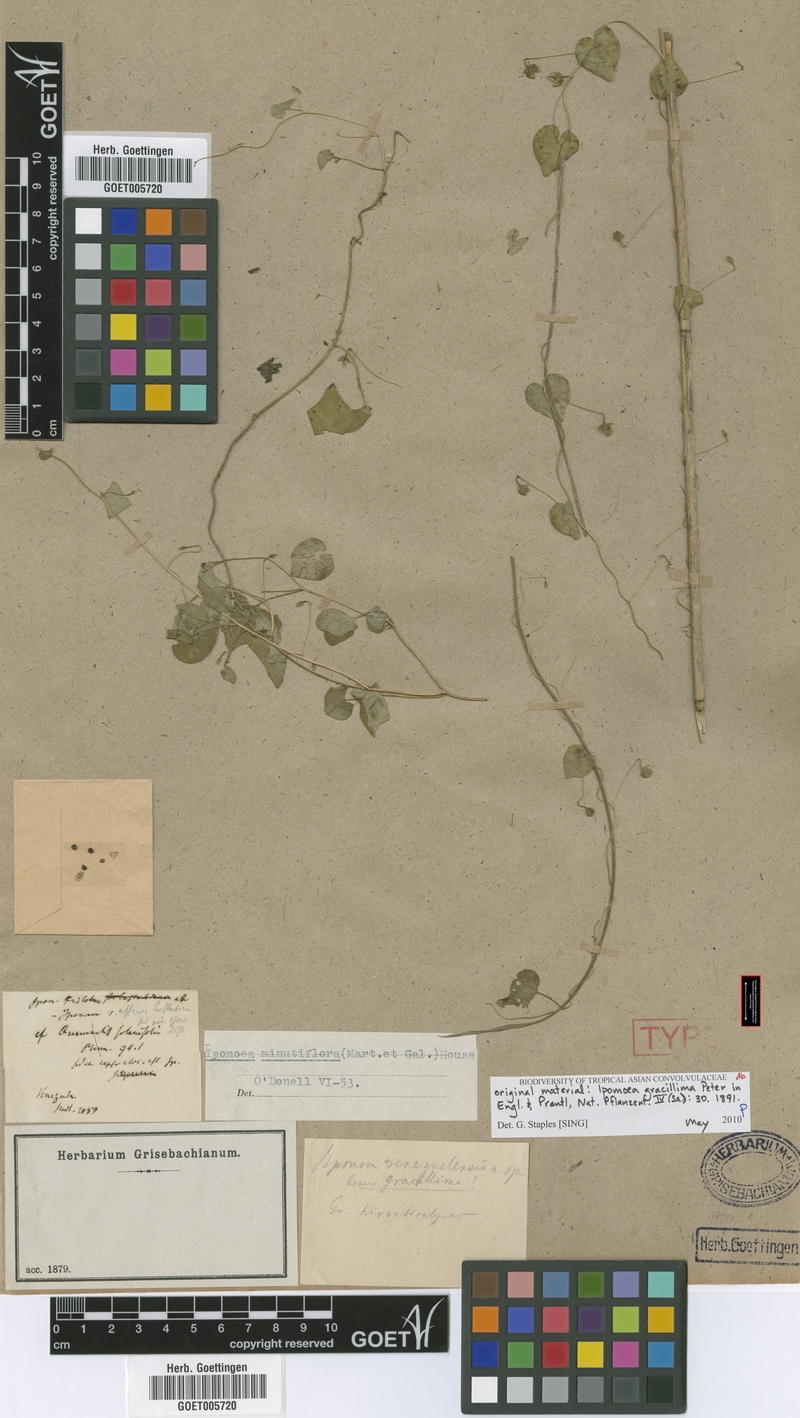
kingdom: Plantae
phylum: Tracheophyta
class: Magnoliopsida
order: Solanales
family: Convolvulaceae
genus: Ipomoea
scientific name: Ipomoea minutiflora
